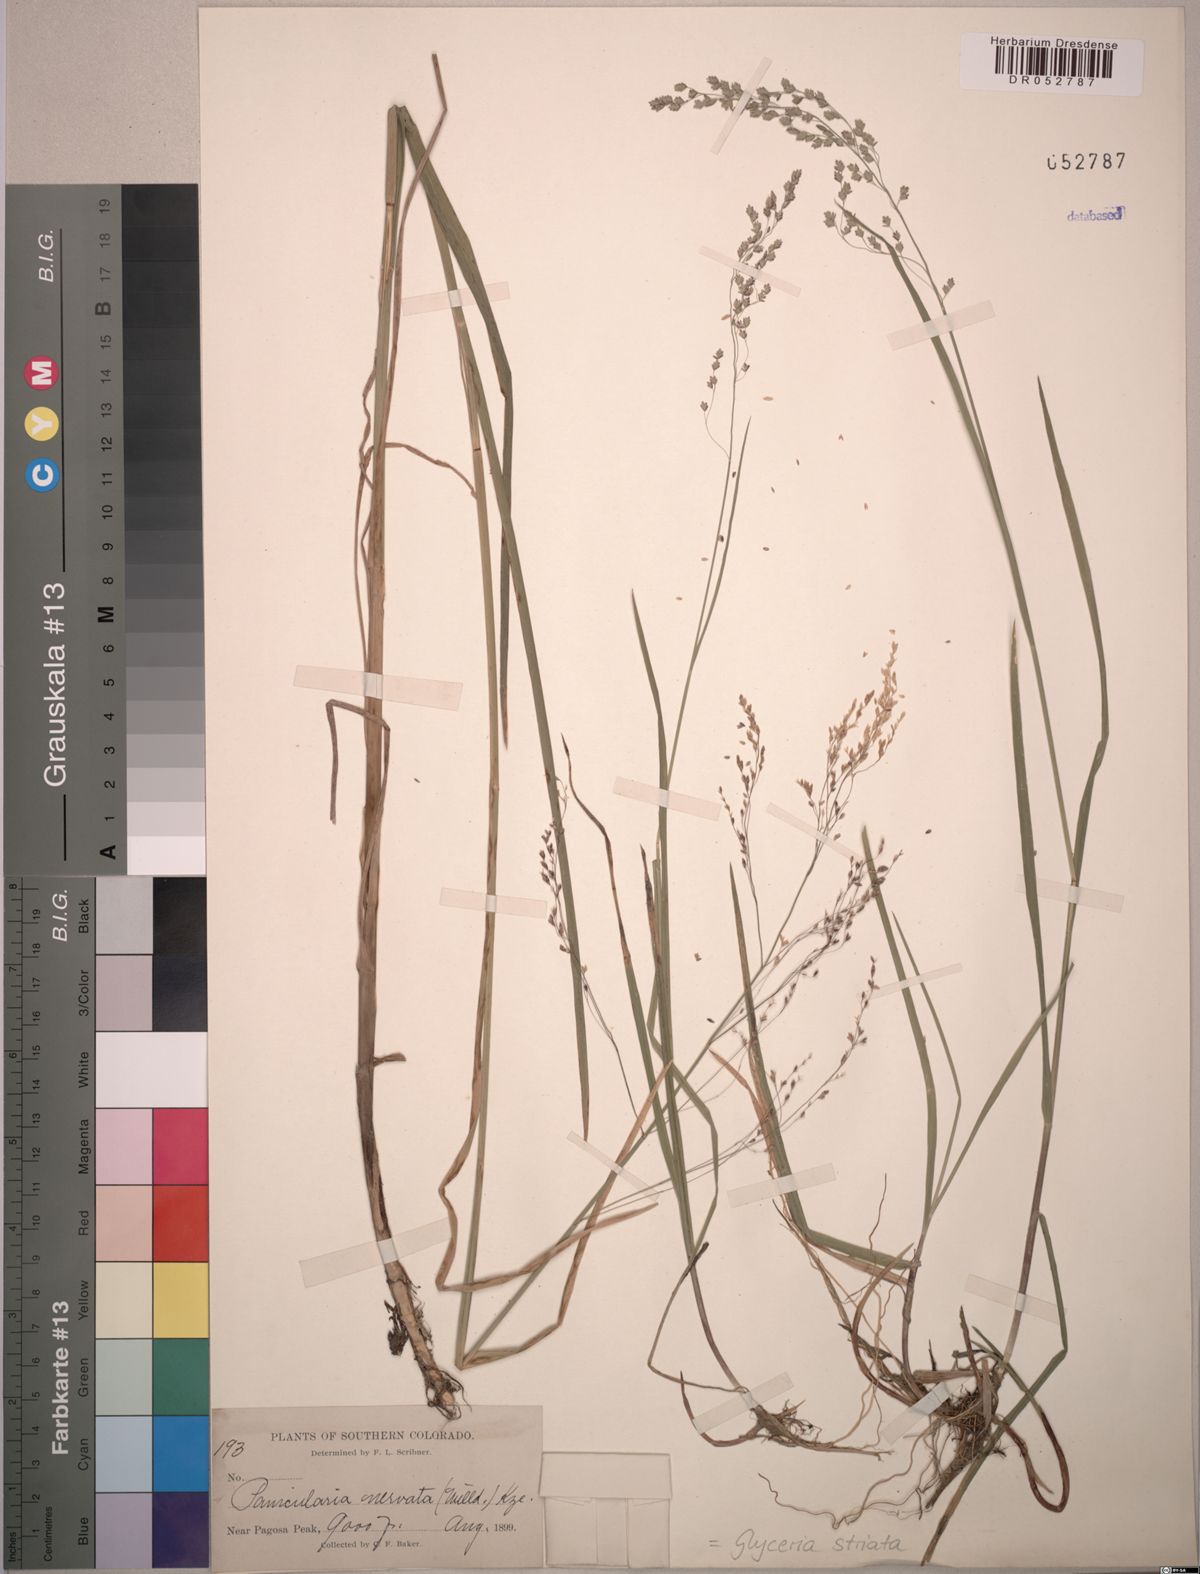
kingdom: Plantae
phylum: Tracheophyta
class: Liliopsida
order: Poales
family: Poaceae
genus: Glyceria
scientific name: Glyceria striata
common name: Fowl manna grass
